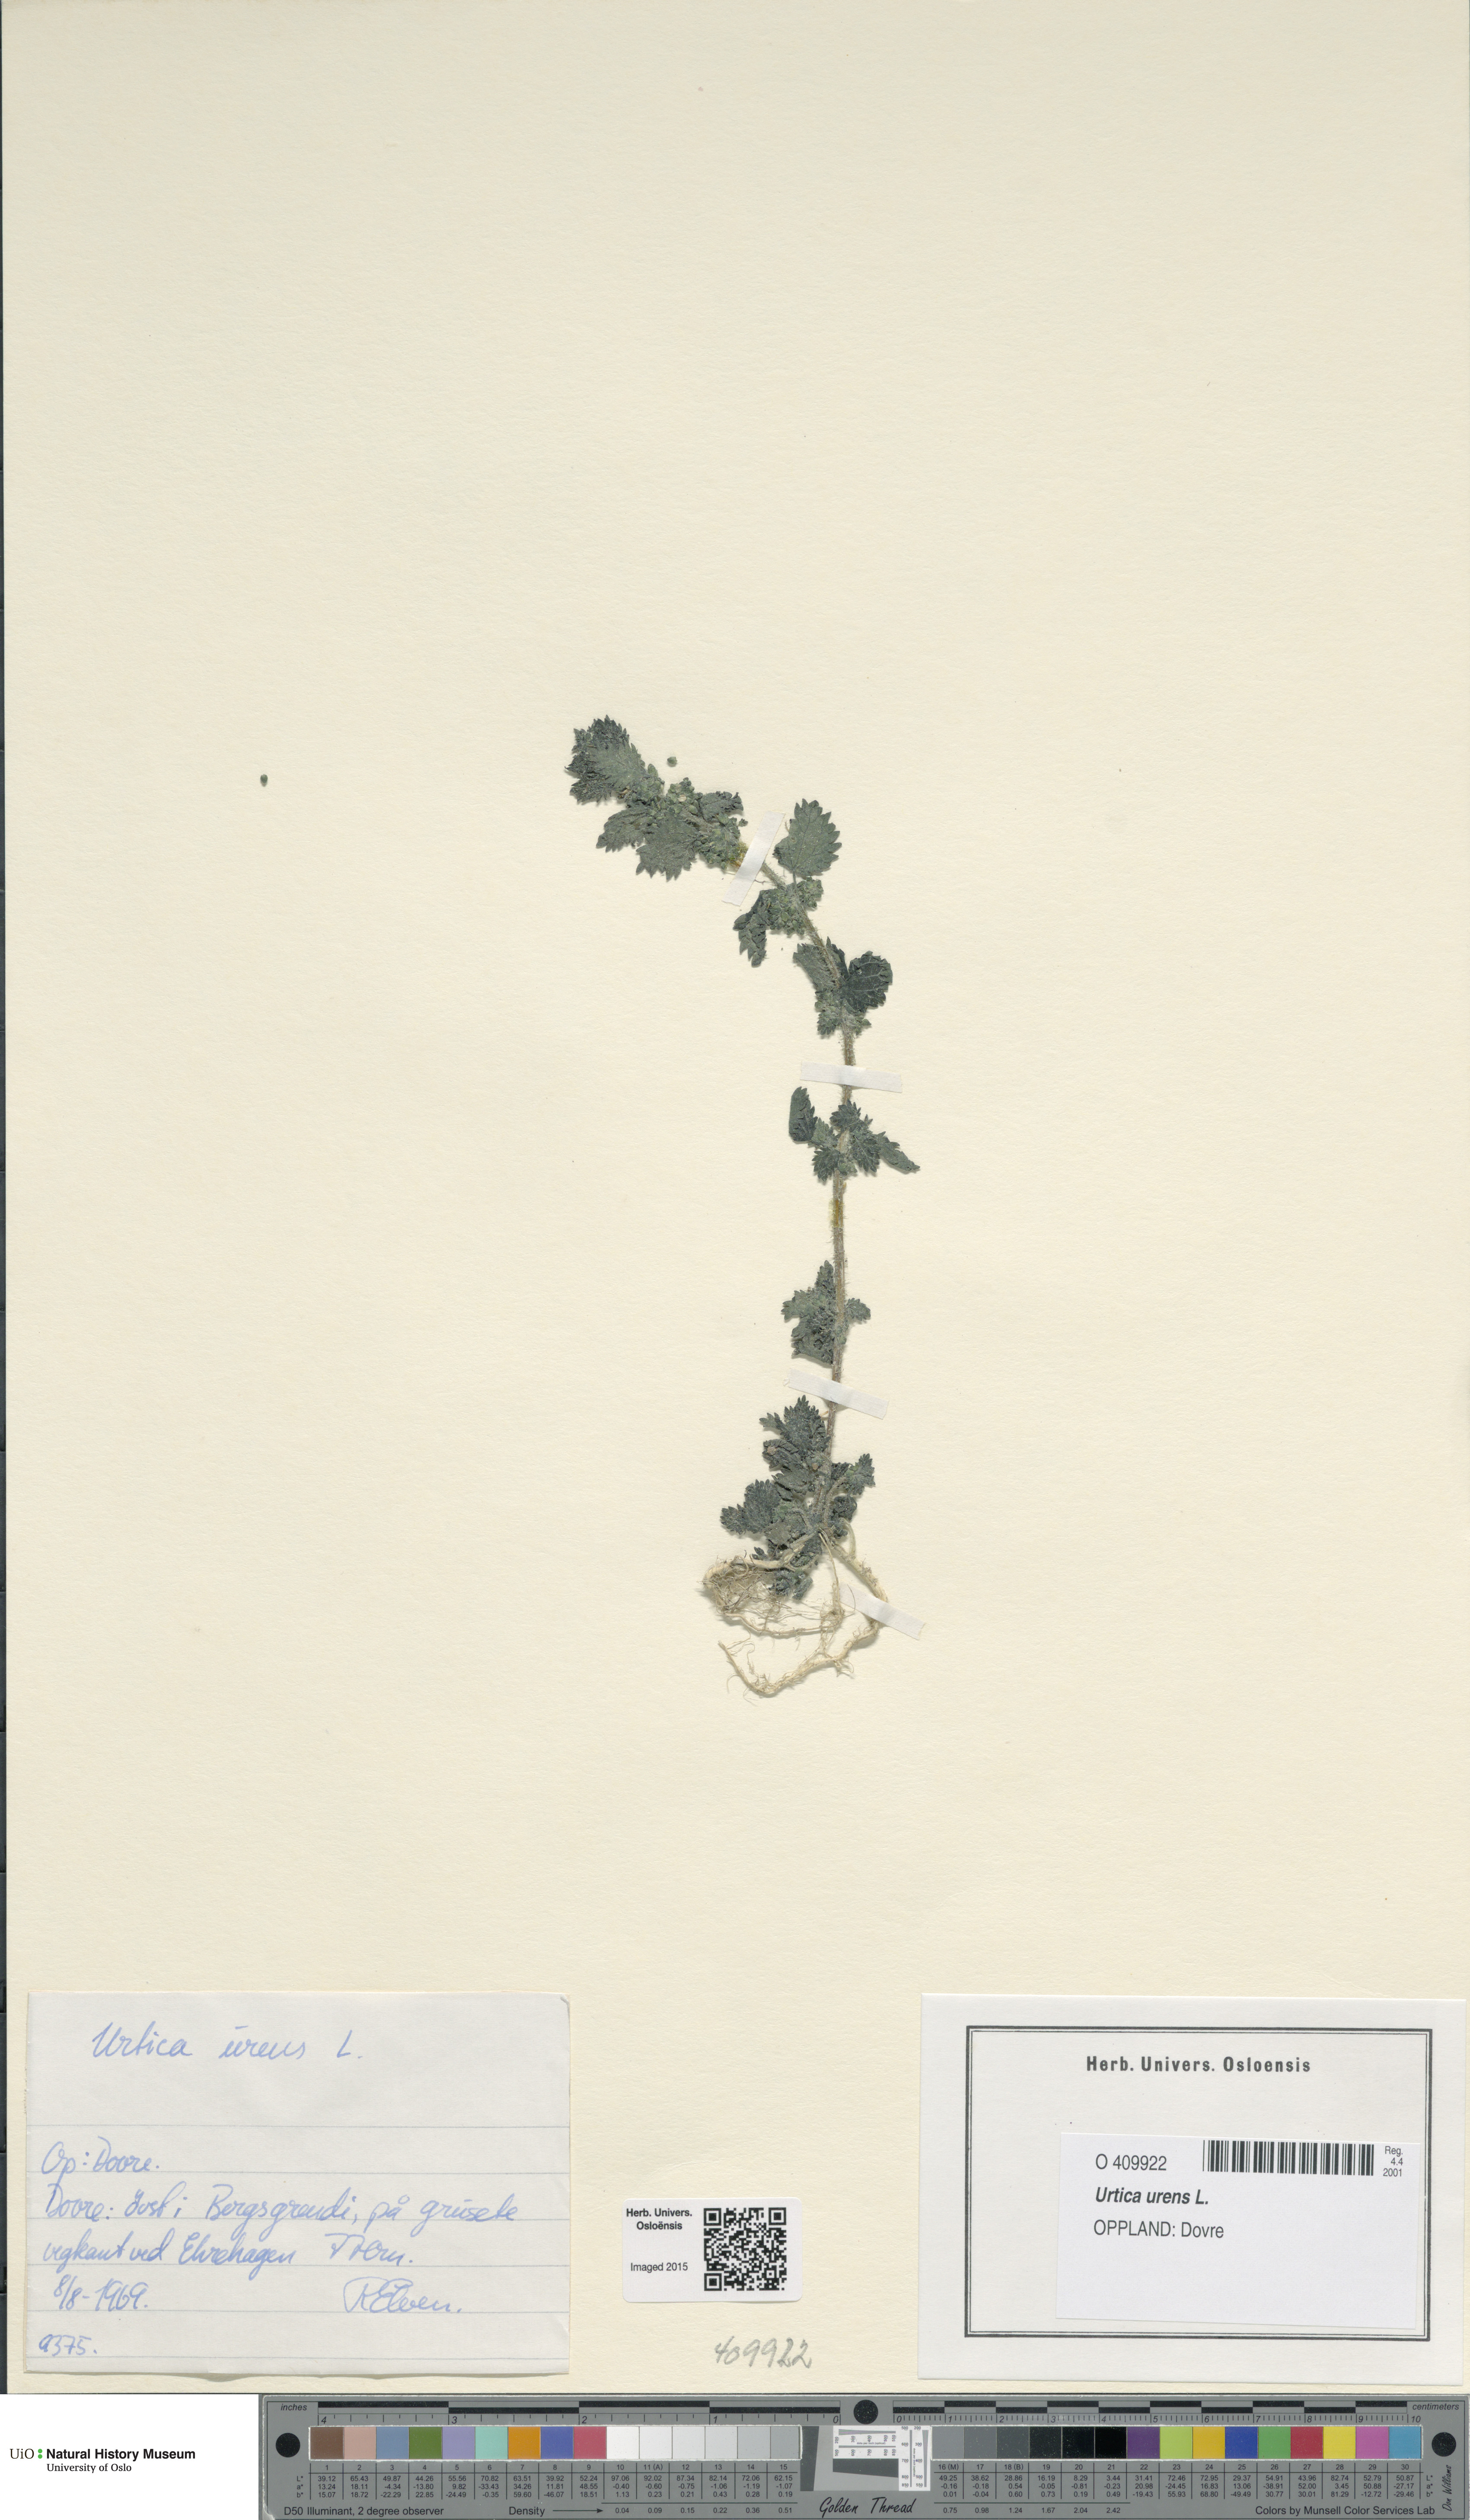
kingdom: Plantae
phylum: Tracheophyta
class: Magnoliopsida
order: Rosales
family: Urticaceae
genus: Urtica
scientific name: Urtica urens
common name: Dwarf nettle
